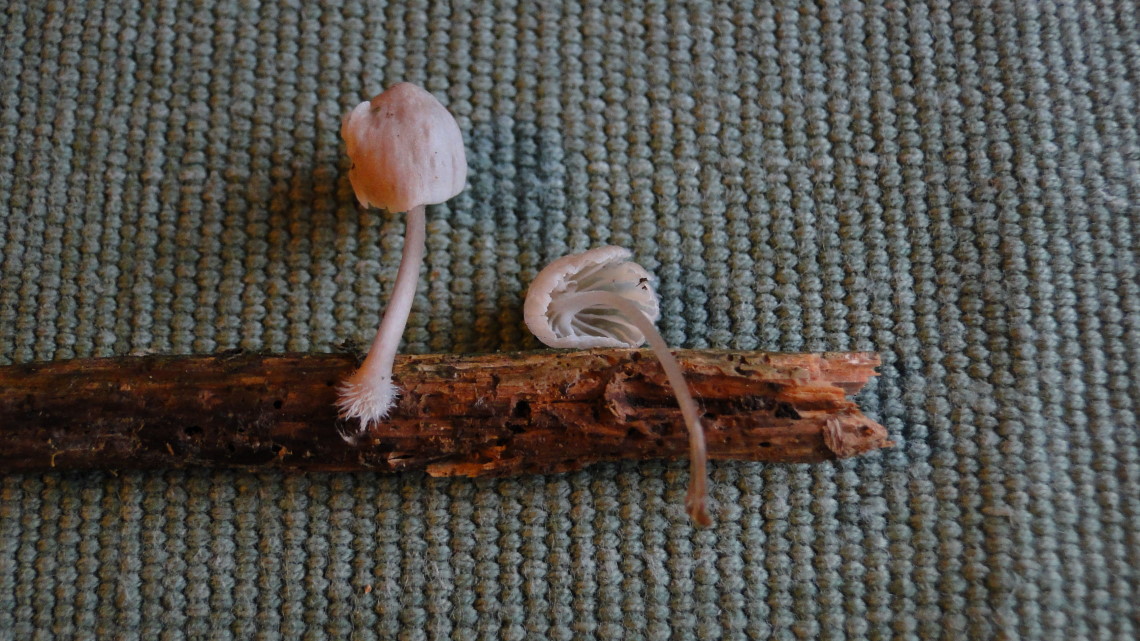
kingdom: Fungi
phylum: Basidiomycota
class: Agaricomycetes
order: Agaricales
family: Porotheleaceae
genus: Phloeomana
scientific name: Phloeomana speirea
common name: kvist-huesvamp
